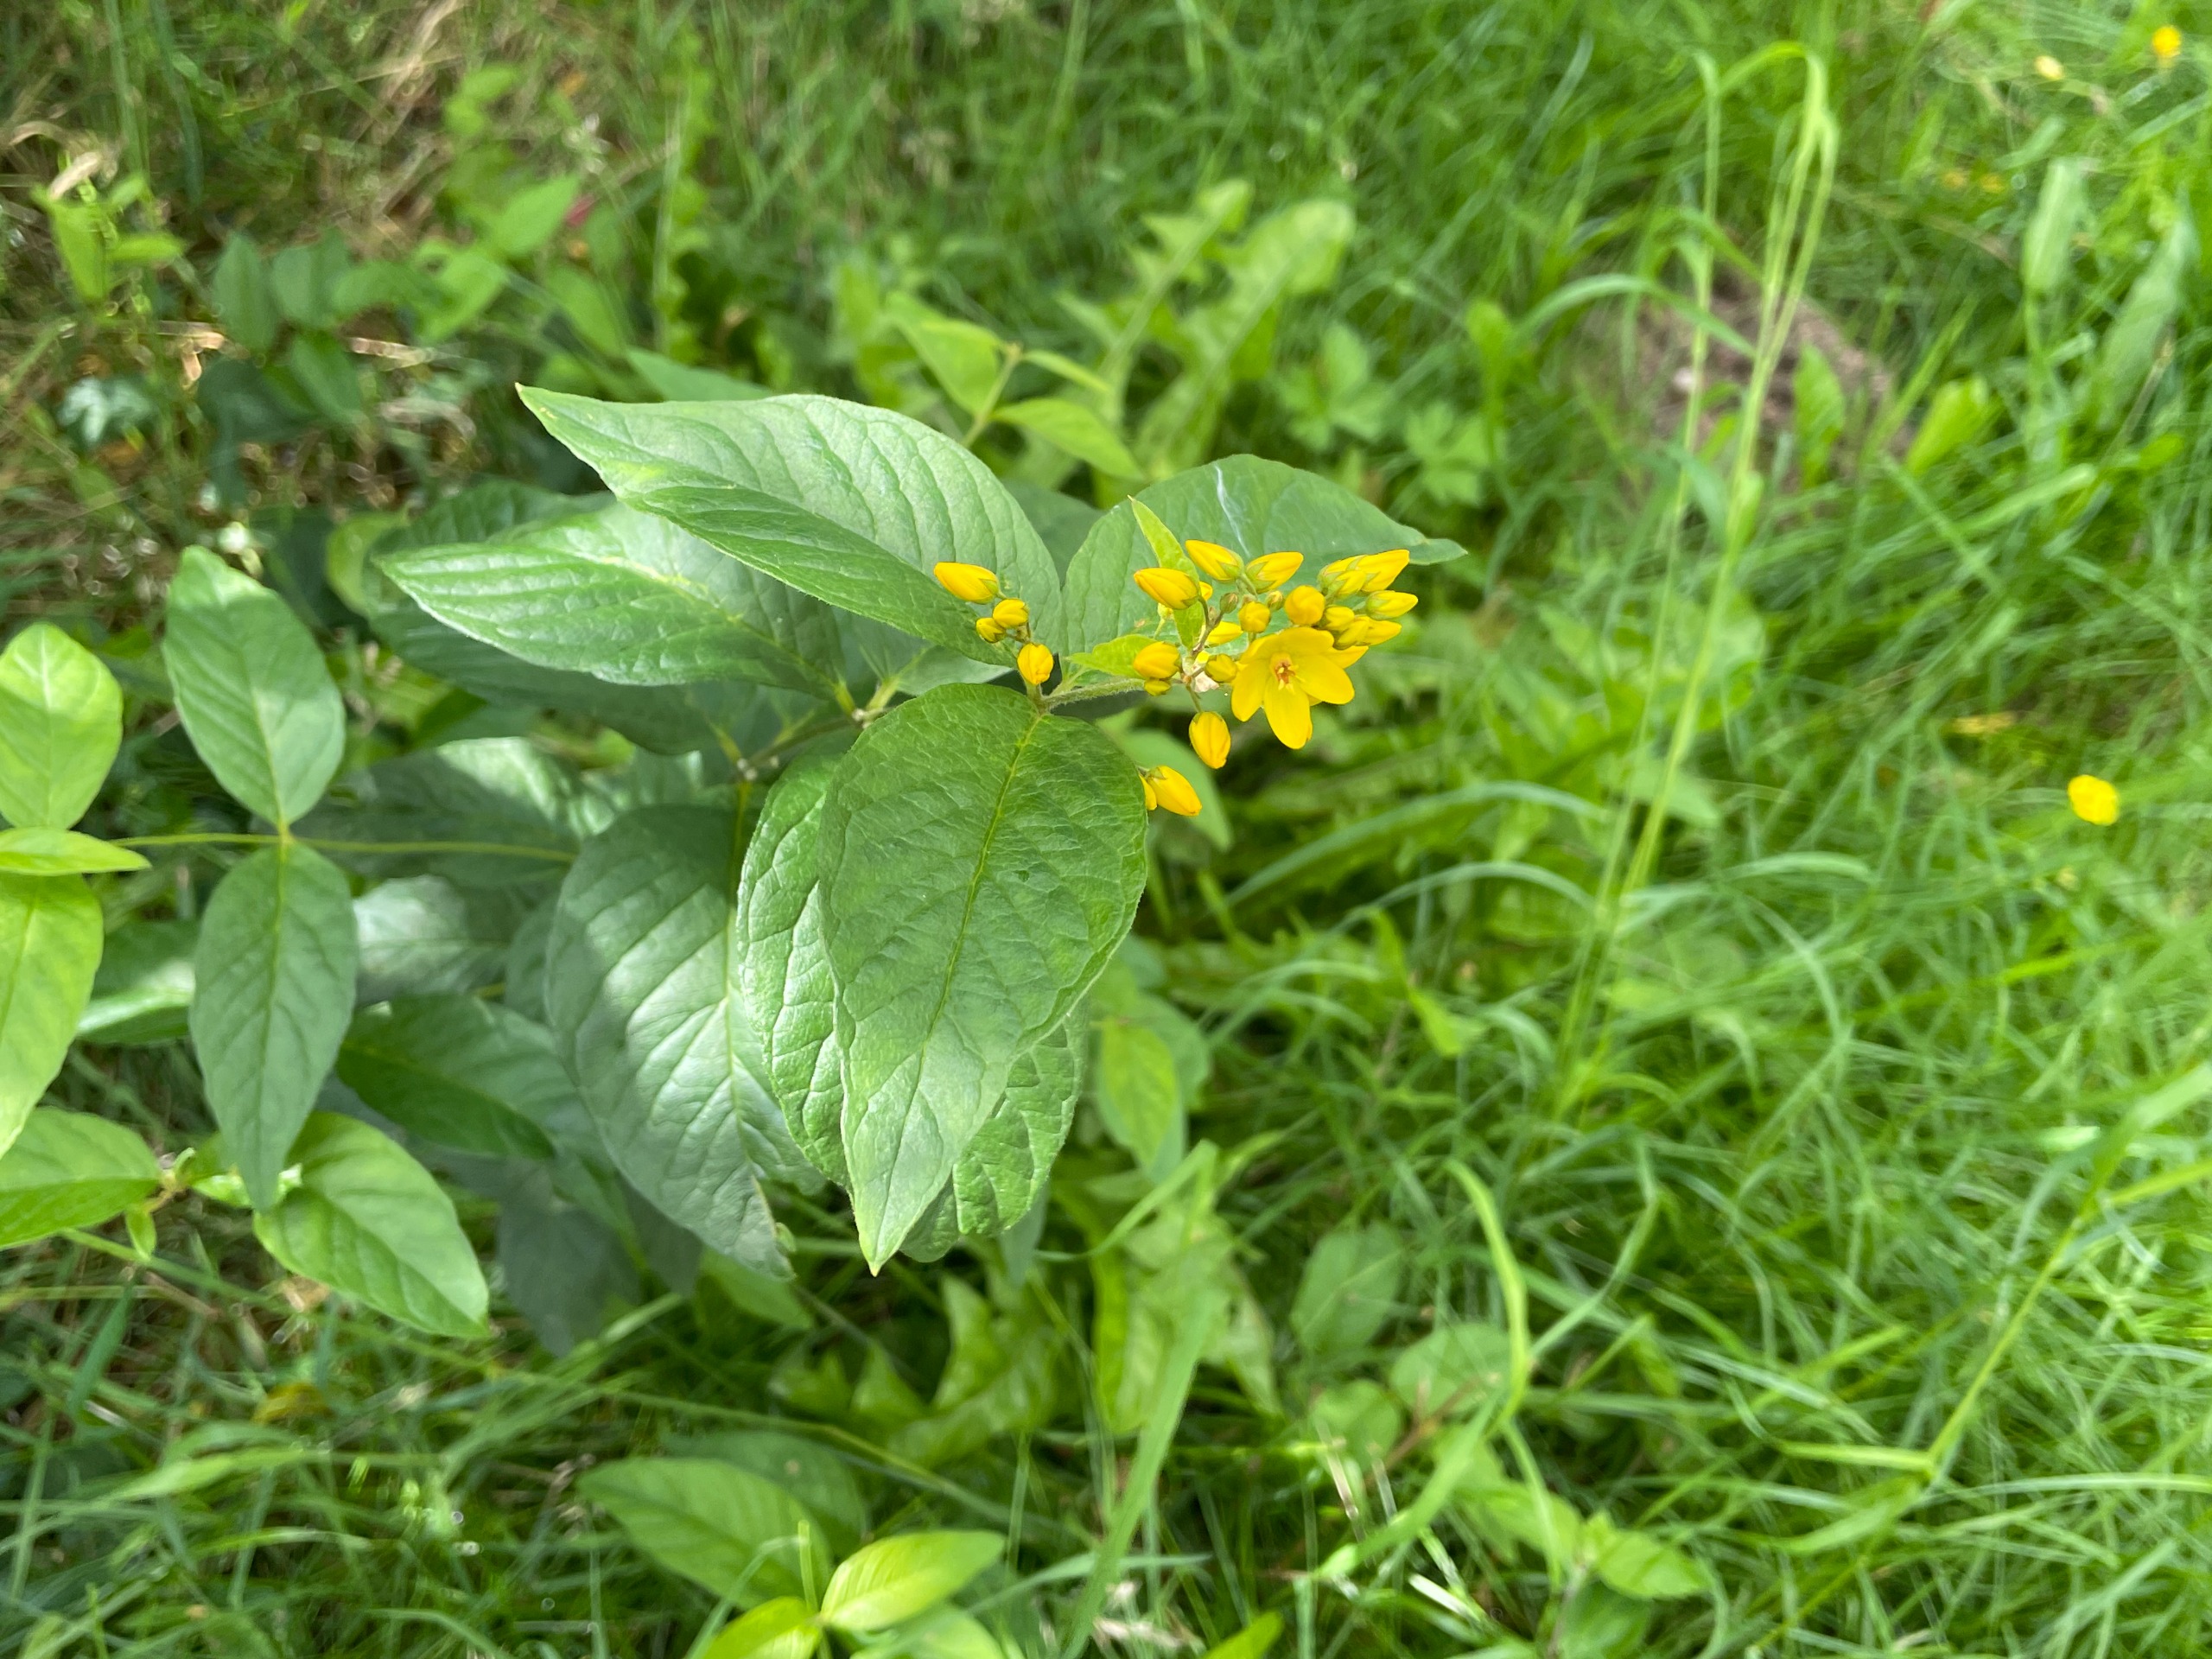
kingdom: Plantae
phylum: Tracheophyta
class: Magnoliopsida
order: Ericales
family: Primulaceae
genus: Lysimachia
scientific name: Lysimachia vulgaris
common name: Almindelig fredløs
